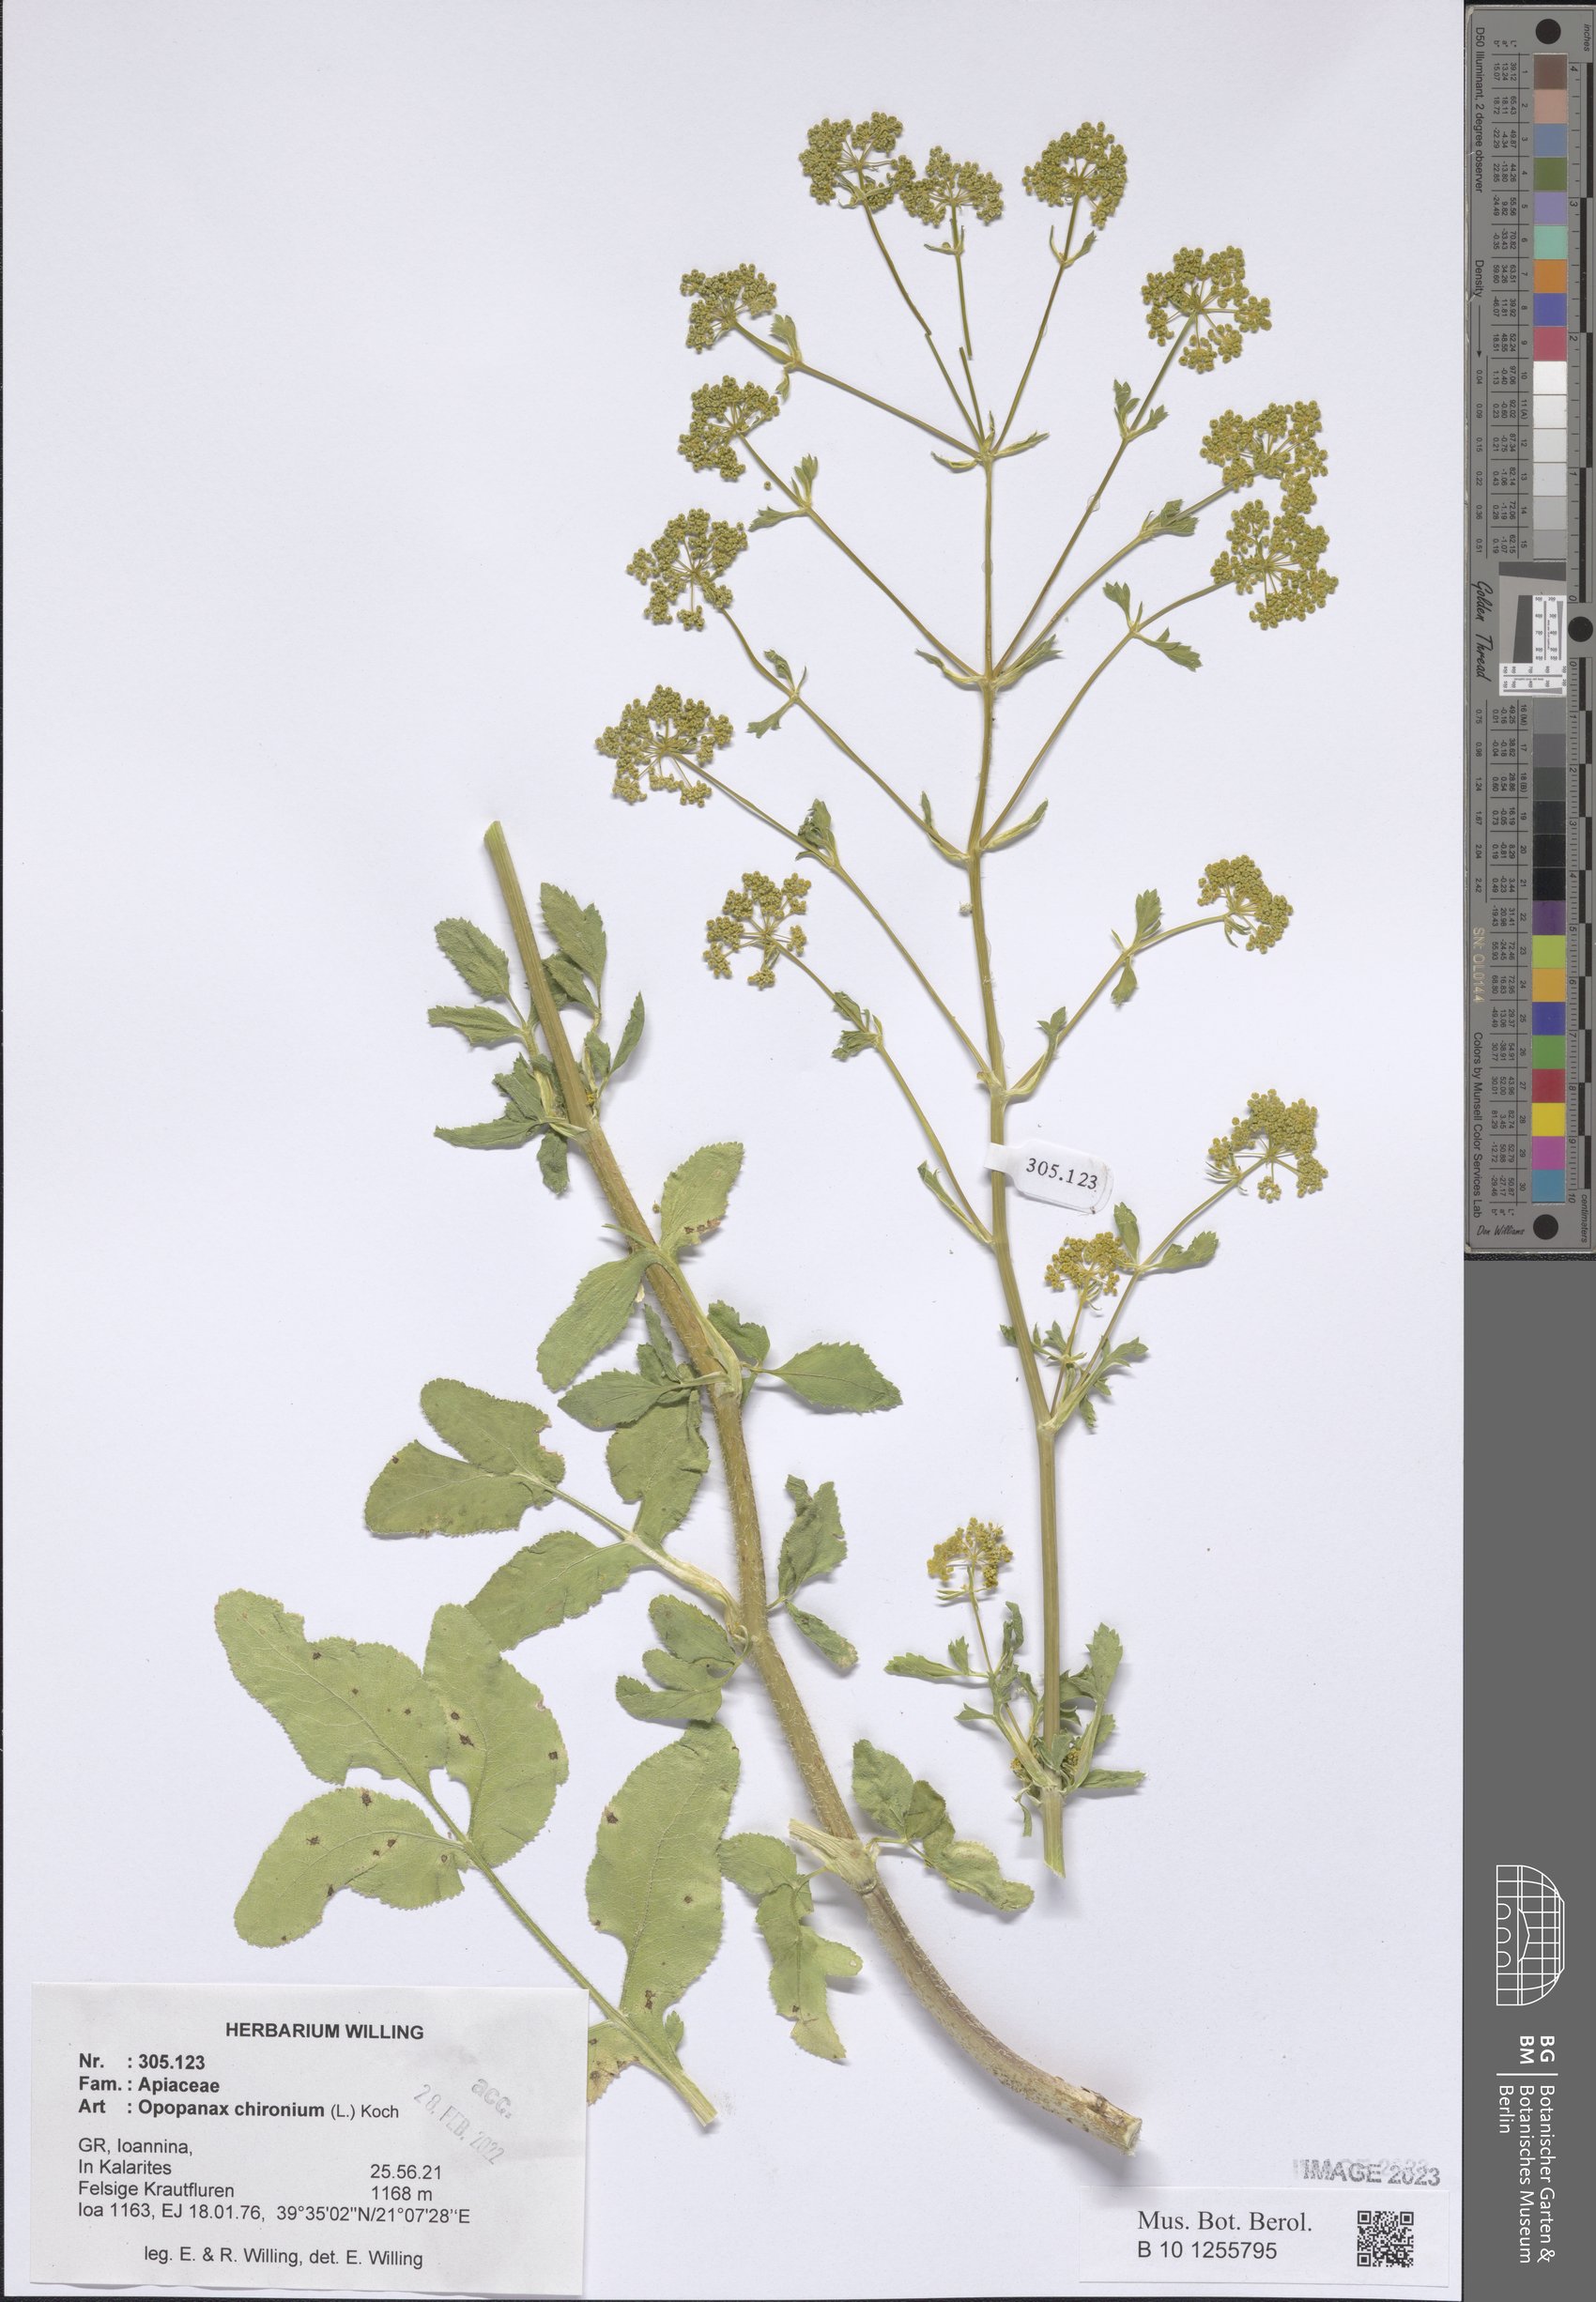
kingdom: Plantae
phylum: Tracheophyta
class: Magnoliopsida
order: Apiales
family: Apiaceae
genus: Opopanax
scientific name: Opopanax chironium
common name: Hercules-all-heal
